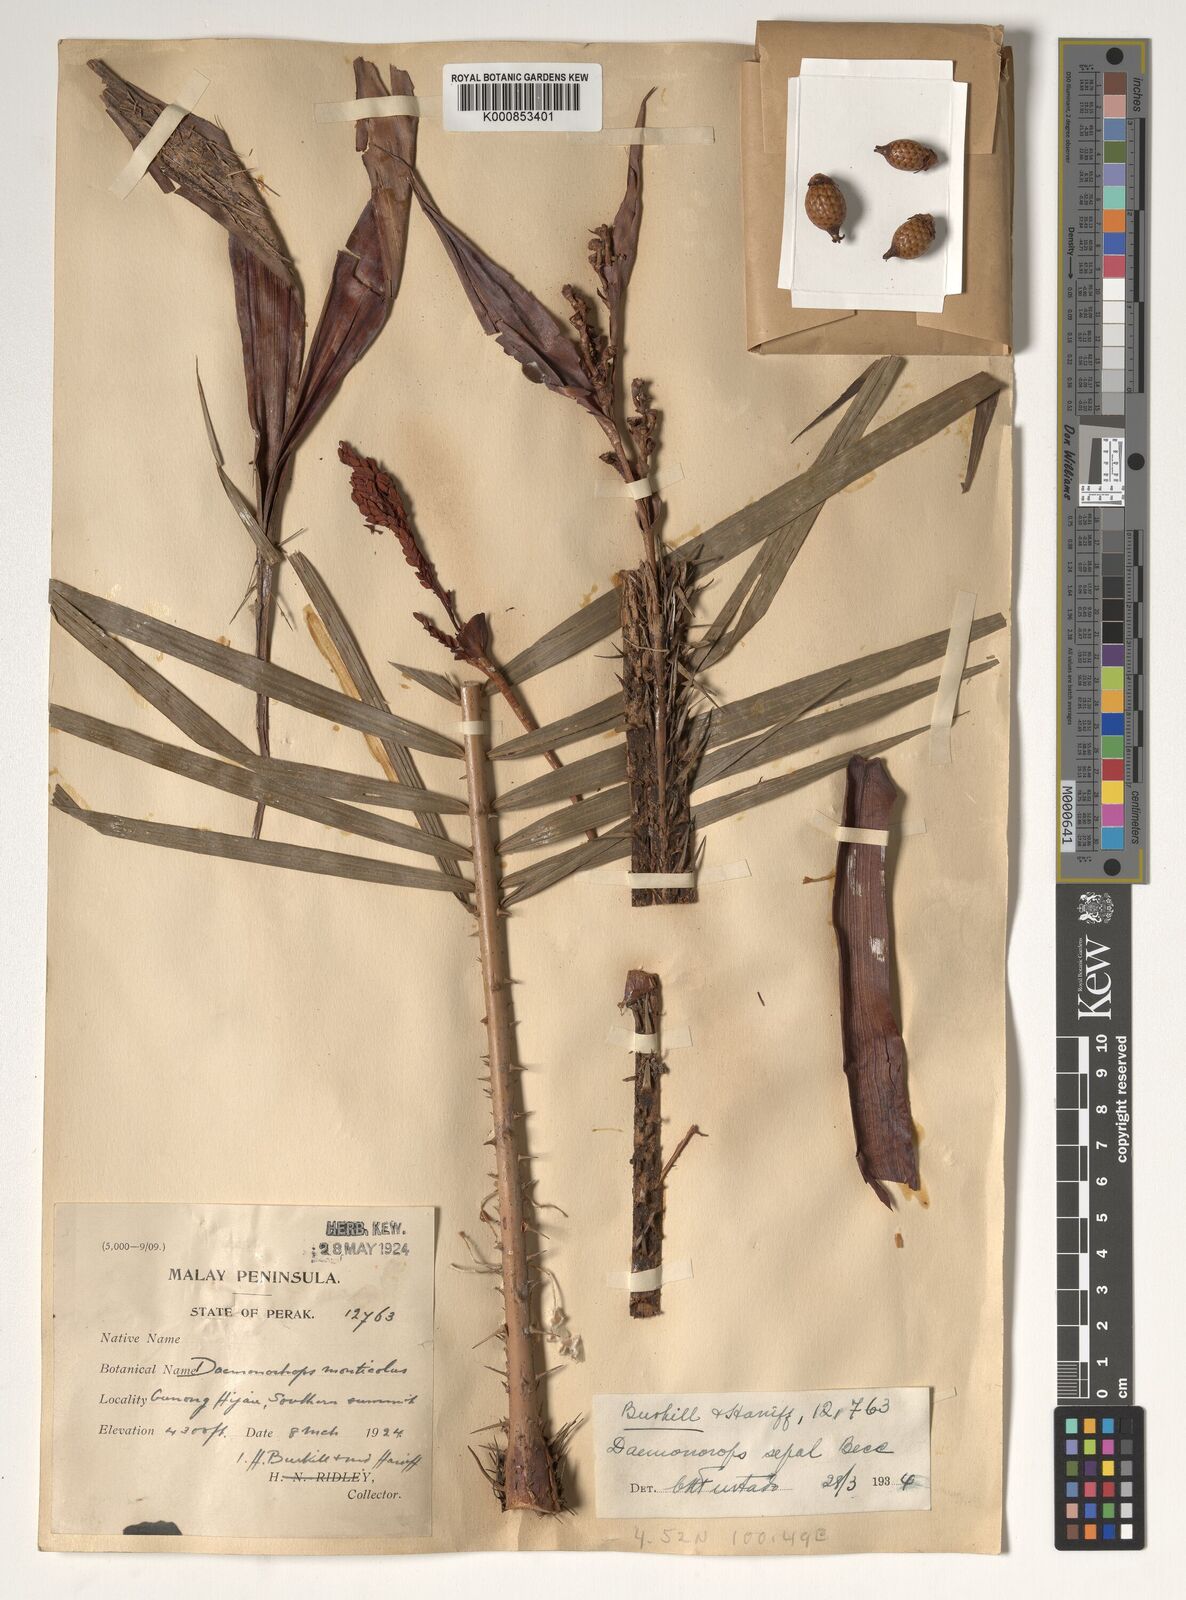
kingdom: Plantae
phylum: Tracheophyta
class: Liliopsida
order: Arecales
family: Arecaceae
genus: Calamus
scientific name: Calamus melanochaetes
